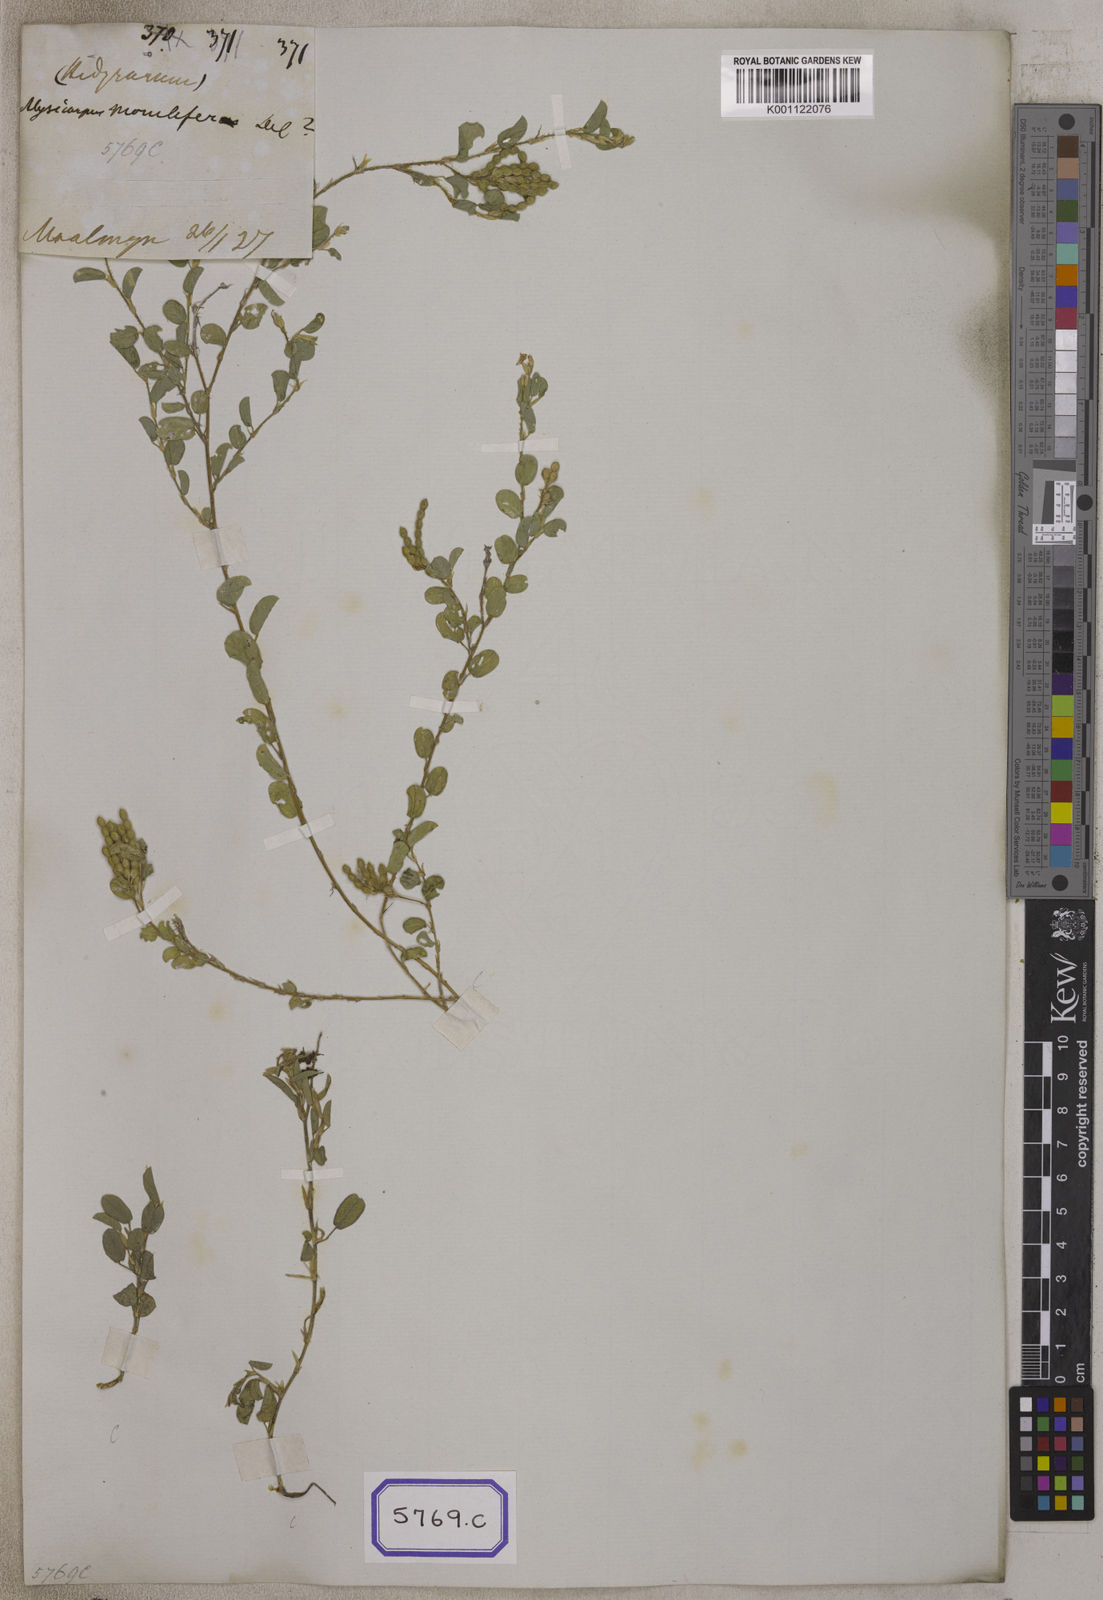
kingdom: Plantae
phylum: Tracheophyta
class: Magnoliopsida
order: Fabales
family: Fabaceae
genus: Alysicarpus
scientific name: Alysicarpus monilifer
